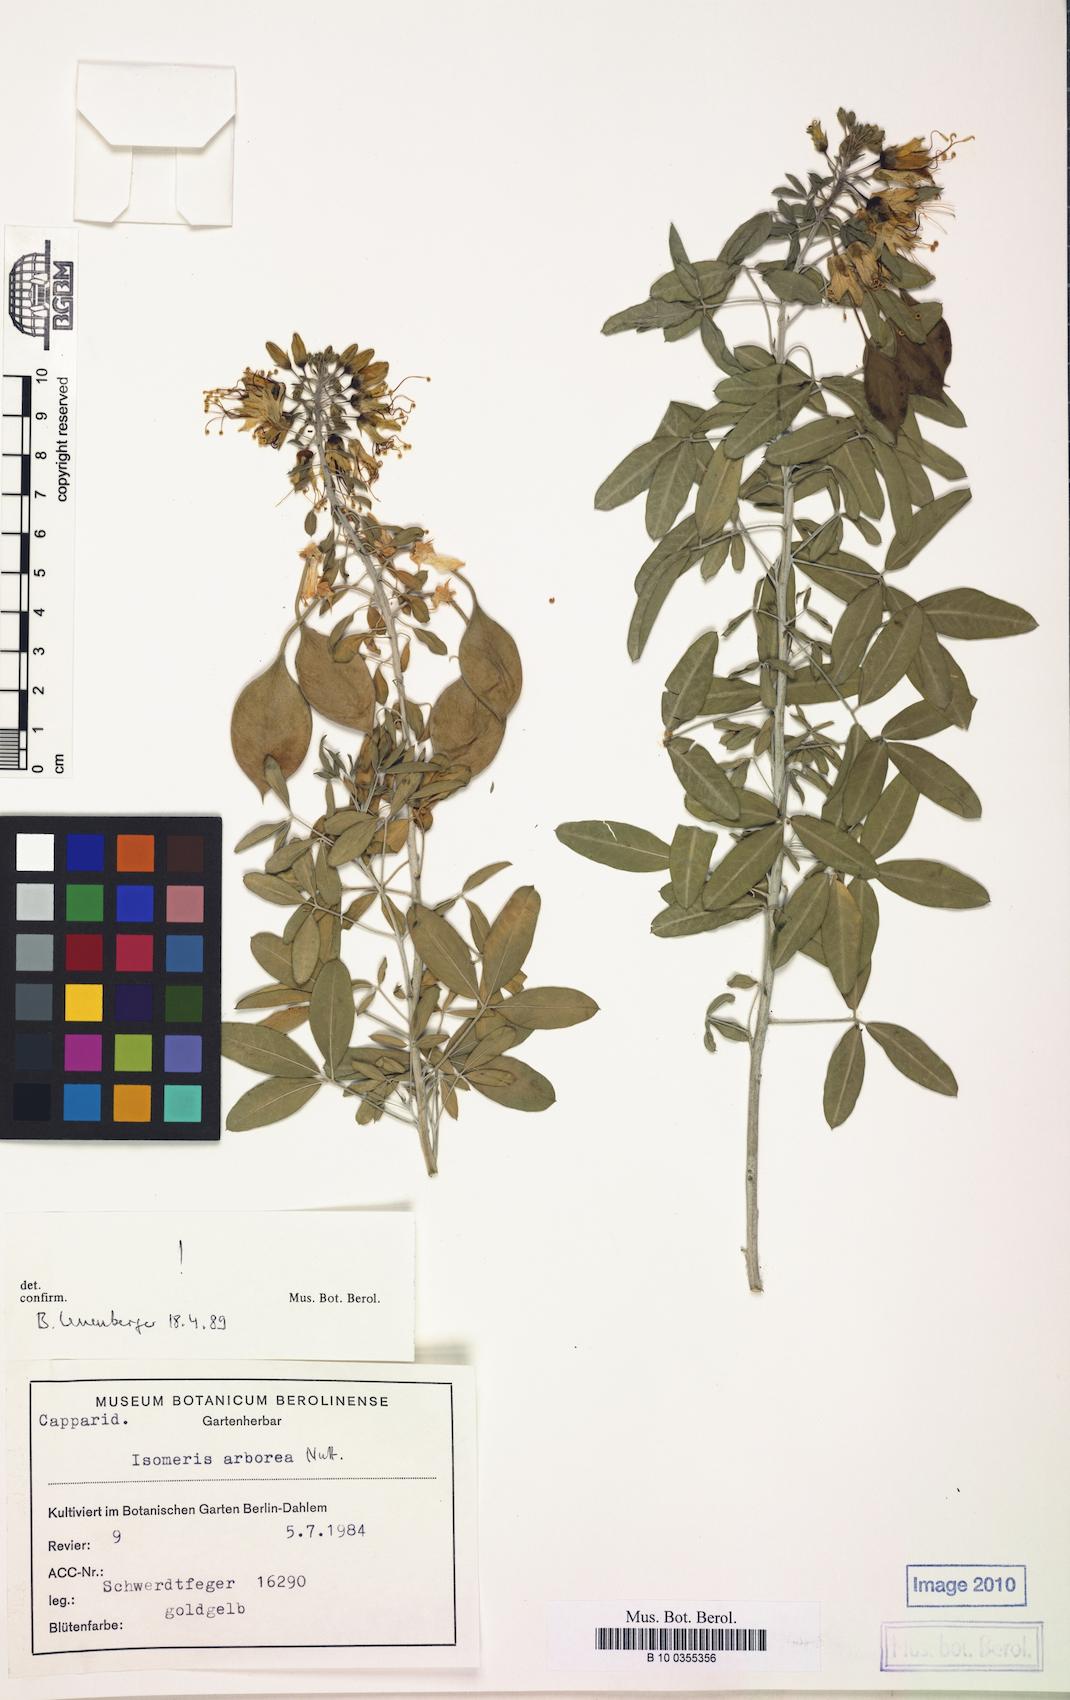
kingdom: Plantae
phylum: Tracheophyta
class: Magnoliopsida
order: Brassicales
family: Cleomaceae
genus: Cleomella
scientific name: Cleomella arborea
